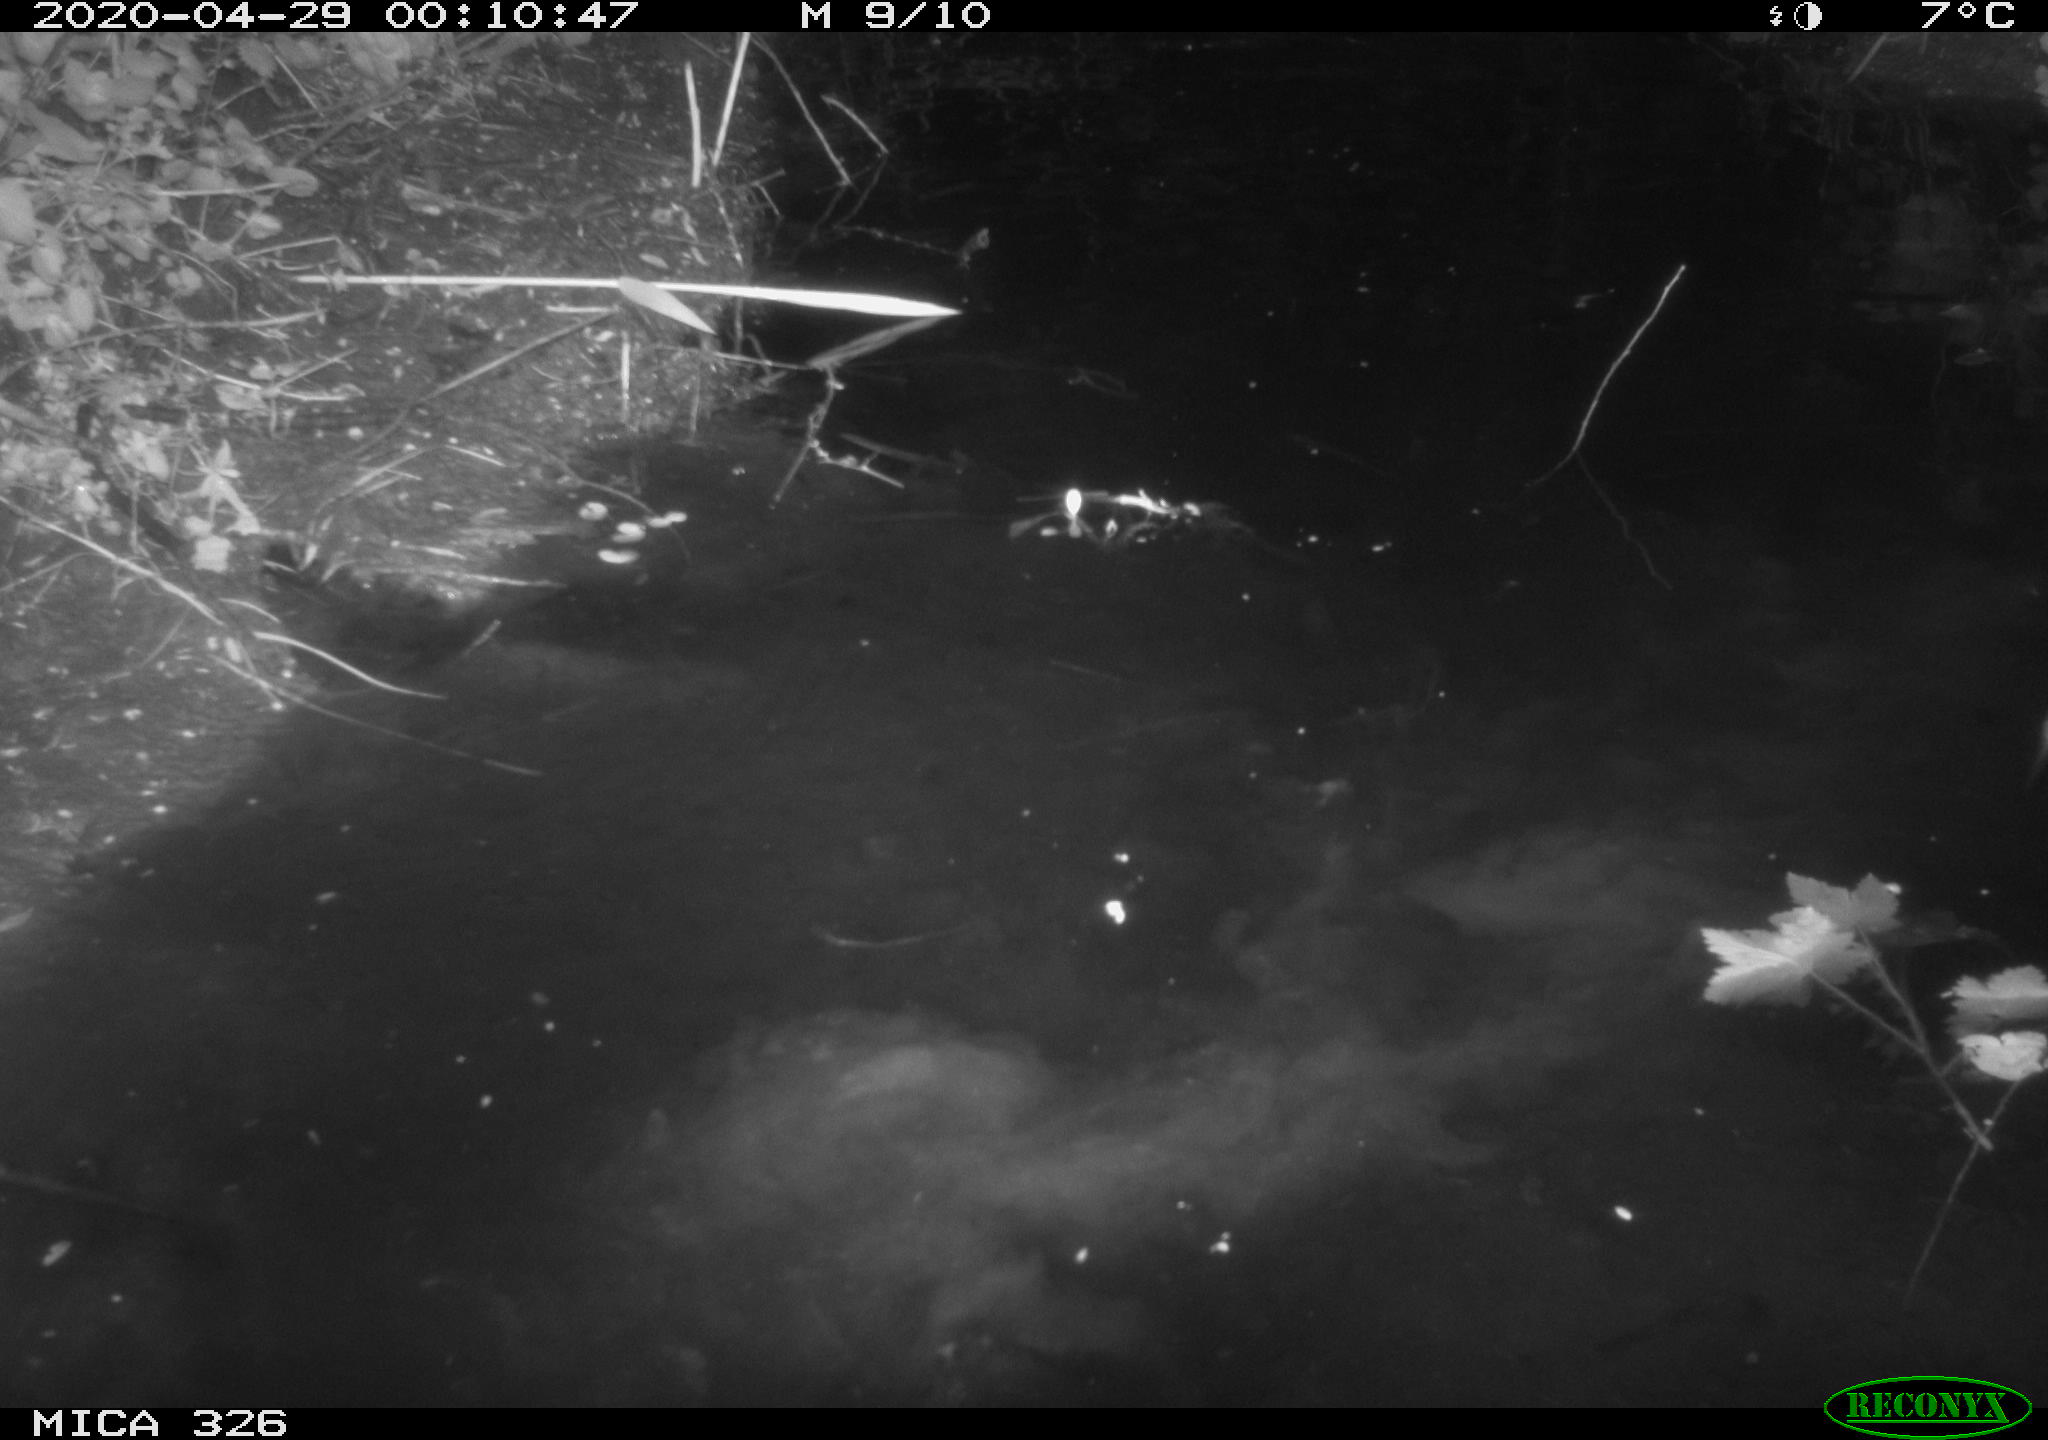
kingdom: Animalia
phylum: Chordata
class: Mammalia
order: Rodentia
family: Cricetidae
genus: Ondatra
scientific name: Ondatra zibethicus
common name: Muskrat
